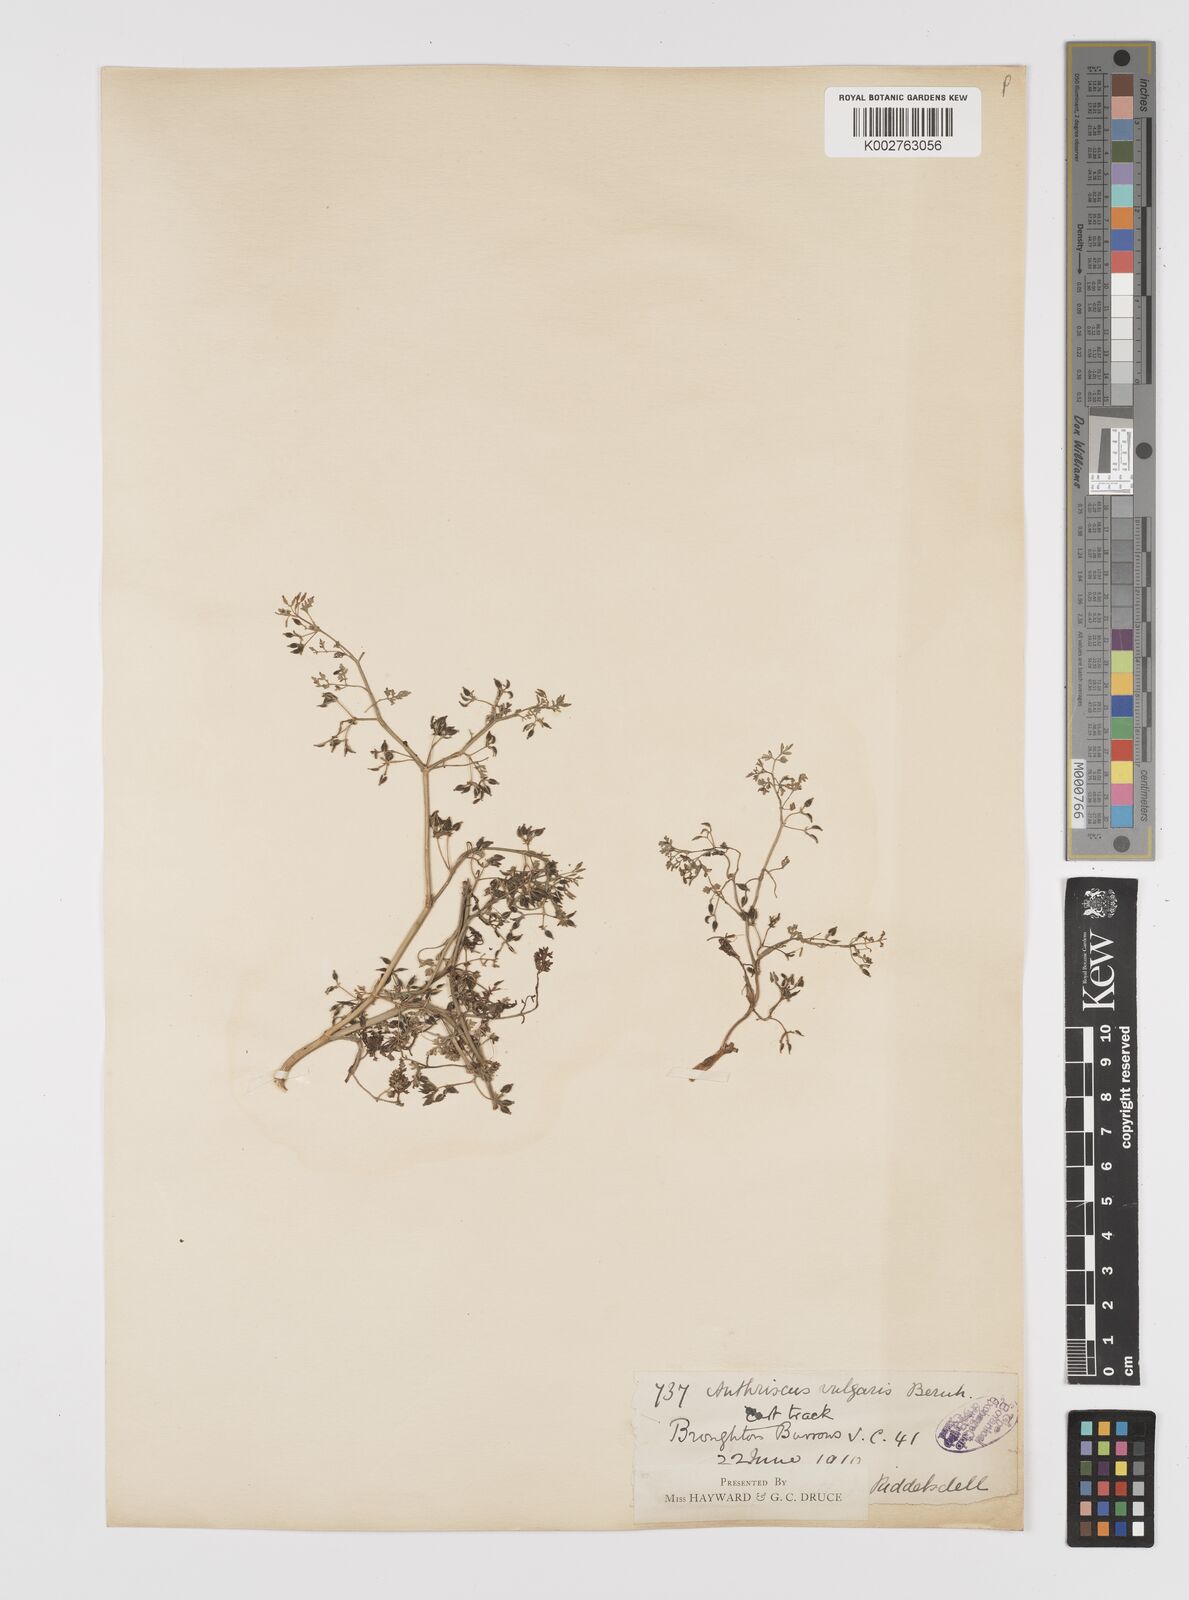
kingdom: Plantae
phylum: Tracheophyta
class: Magnoliopsida
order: Apiales
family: Apiaceae
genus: Anthriscus
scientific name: Anthriscus caucalis
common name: Bur chervil
